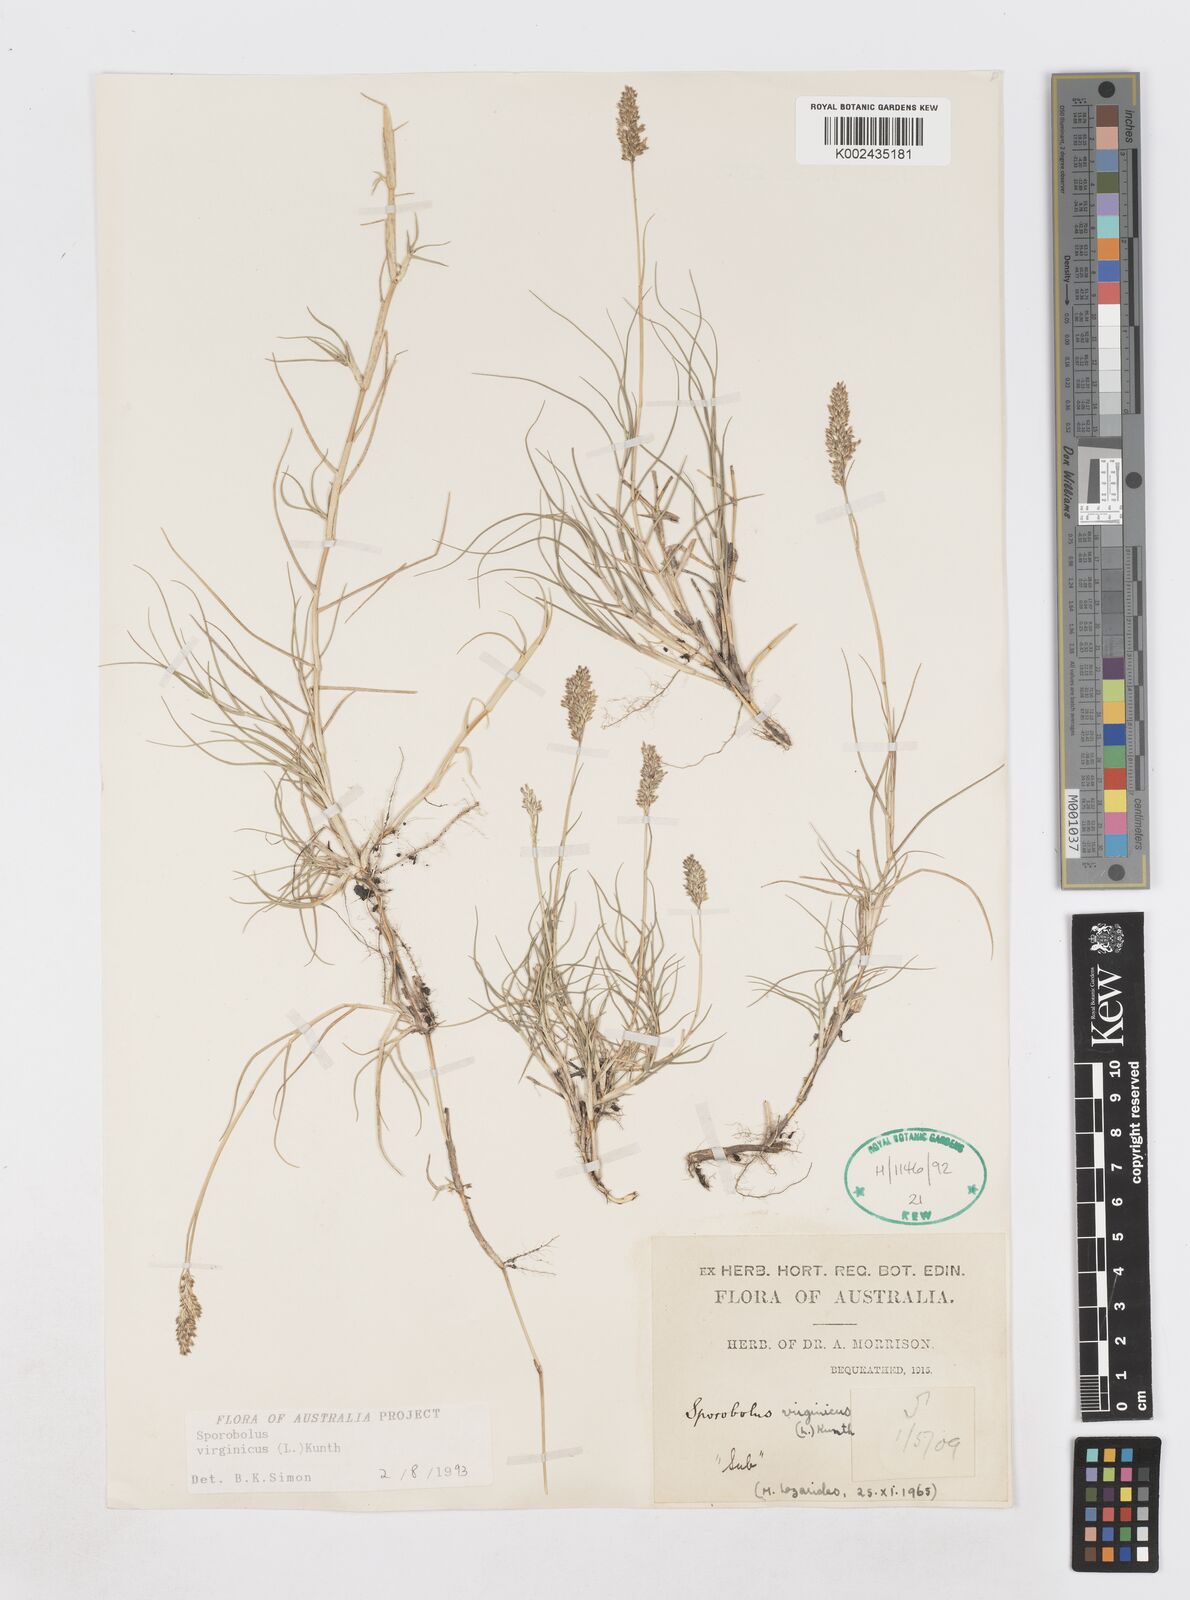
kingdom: Plantae
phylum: Tracheophyta
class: Liliopsida
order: Poales
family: Poaceae
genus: Sporobolus
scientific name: Sporobolus virginicus
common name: Beach dropseed
